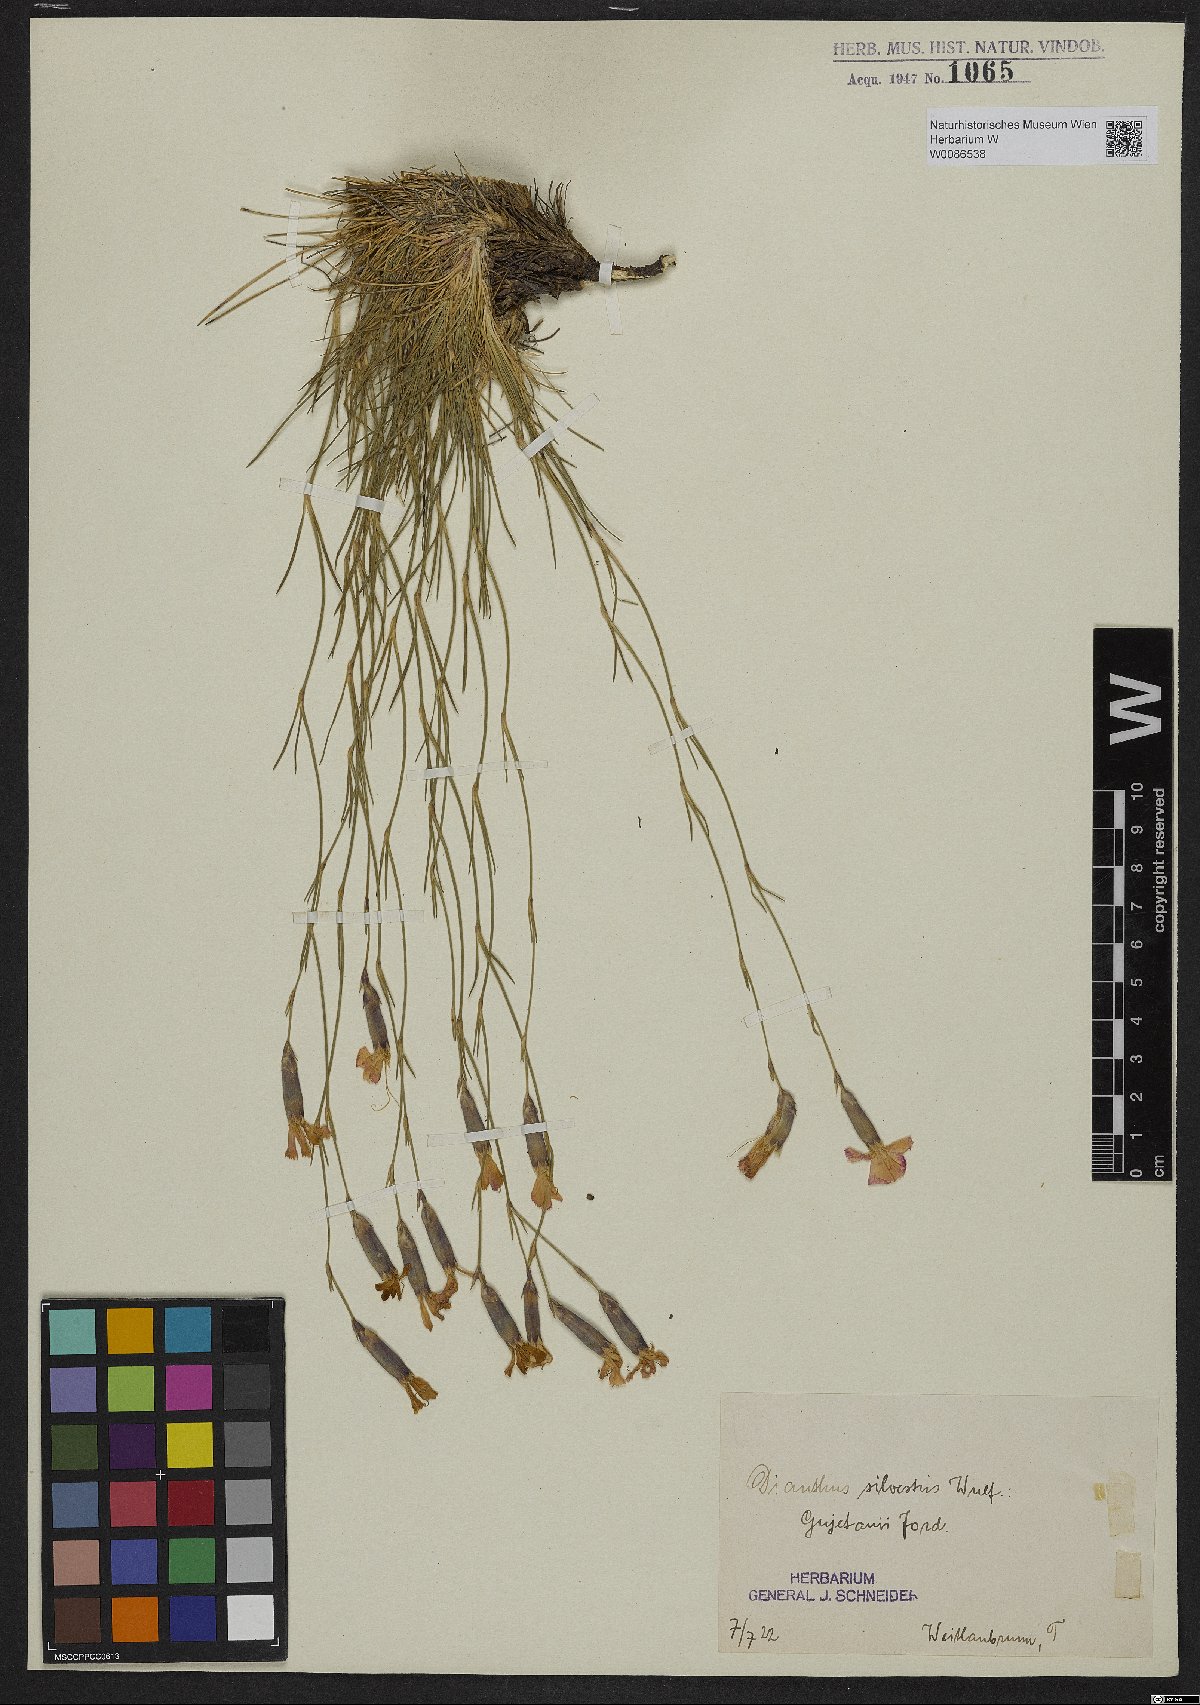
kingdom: Plantae
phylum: Tracheophyta
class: Magnoliopsida
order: Caryophyllales
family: Caryophyllaceae
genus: Dianthus
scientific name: Dianthus sylvestris
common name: Wood pink
